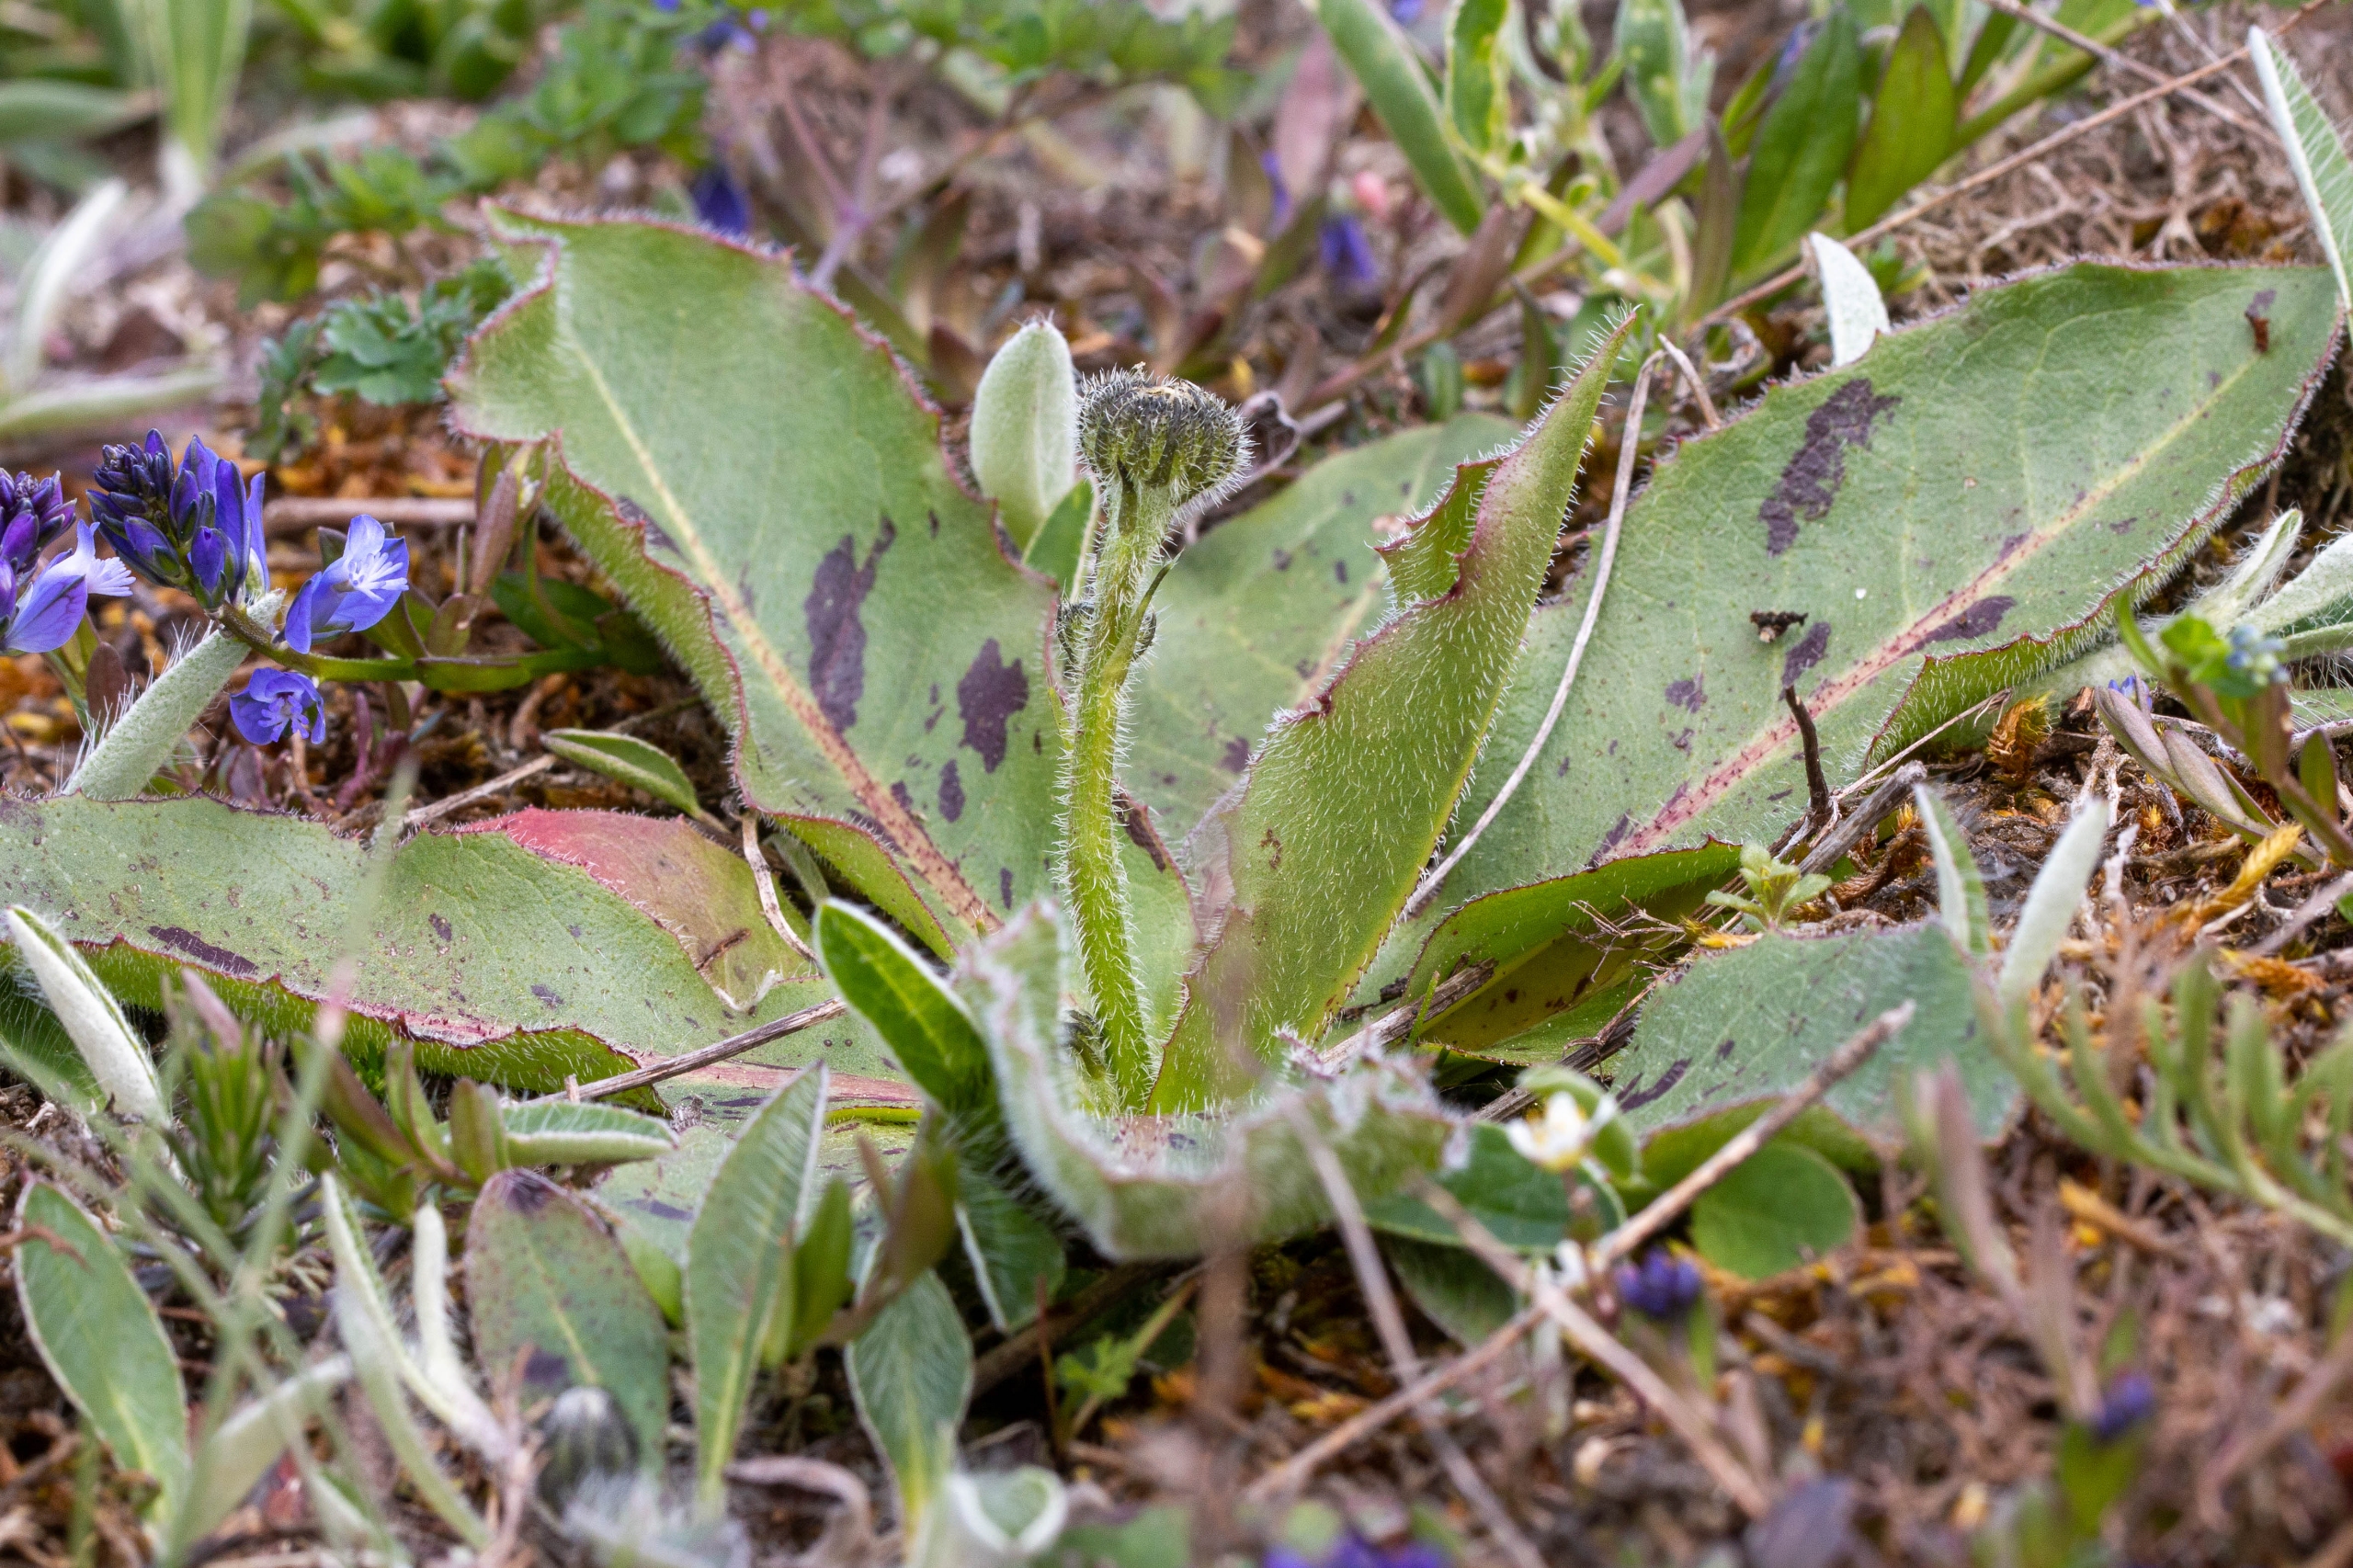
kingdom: Plantae
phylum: Tracheophyta
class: Magnoliopsida
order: Asterales
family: Asteraceae
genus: Trommsdorffia
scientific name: Trommsdorffia maculata
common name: Plettet kongepen
